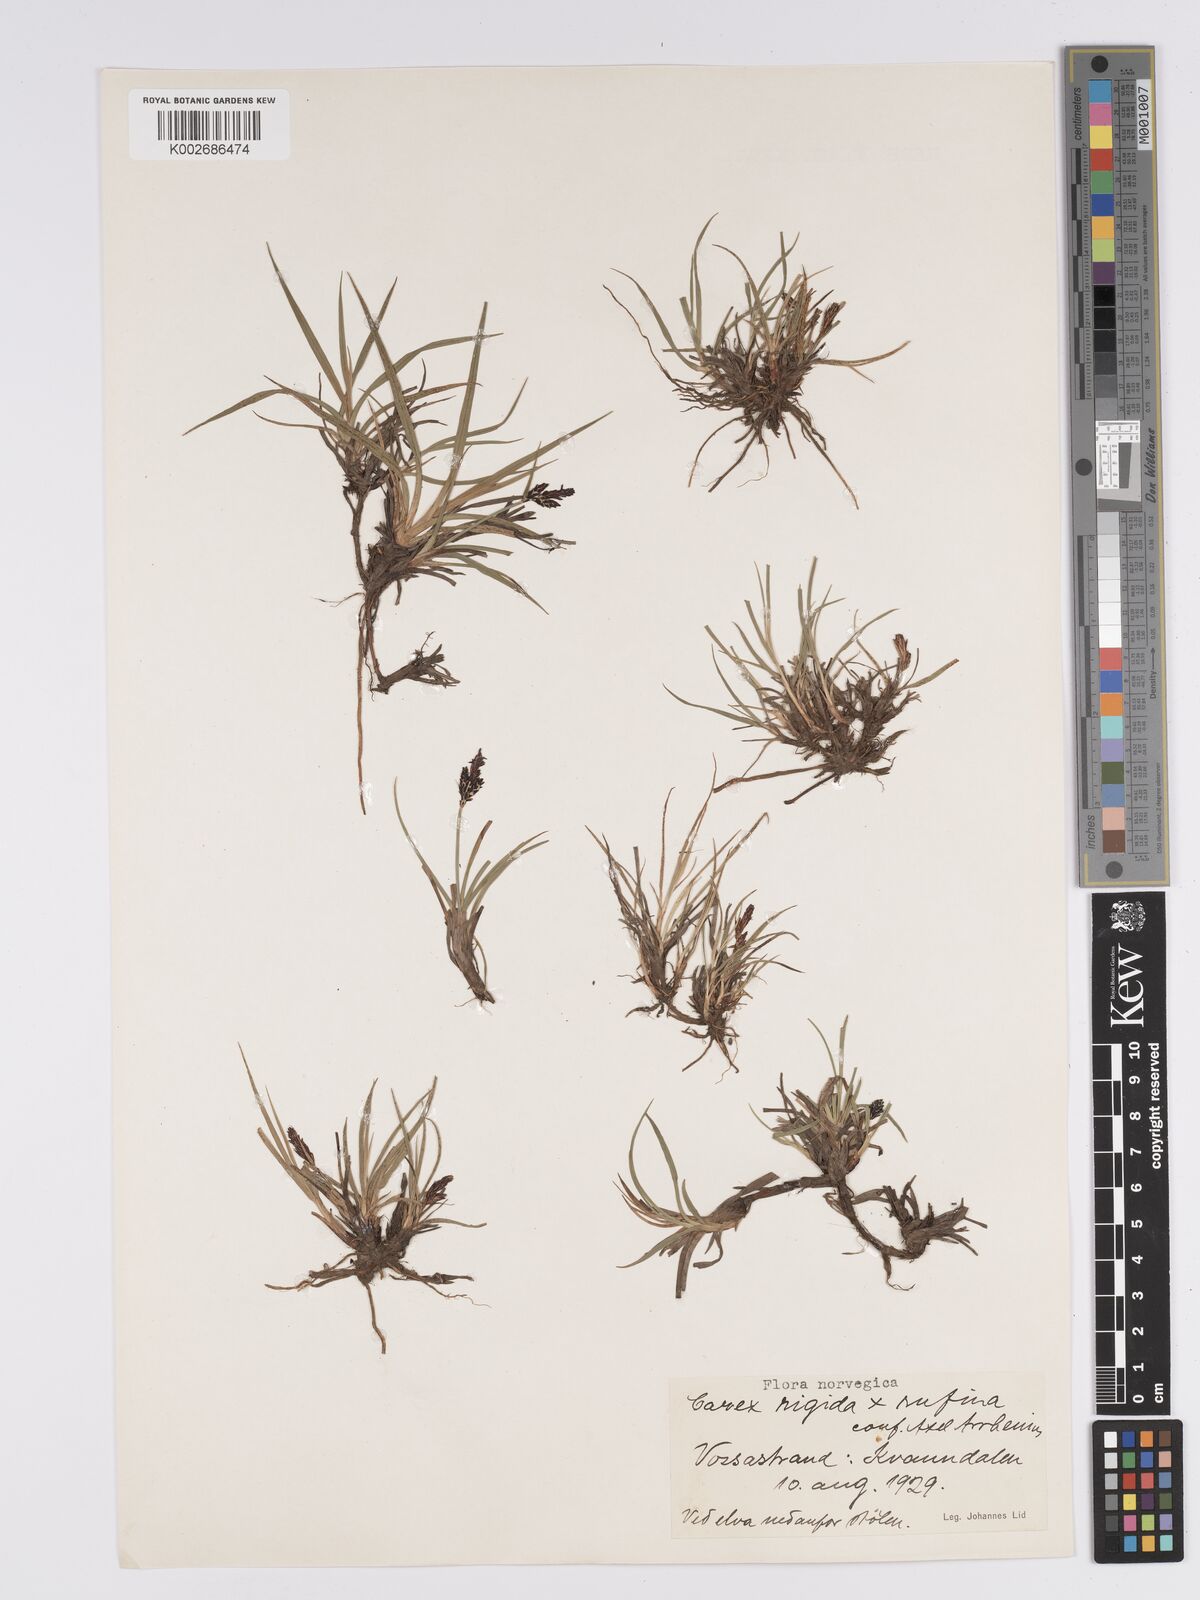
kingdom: Plantae
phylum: Tracheophyta
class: Liliopsida
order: Poales
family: Cyperaceae
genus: Carex
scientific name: Carex bigelowii
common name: Stiff sedge
